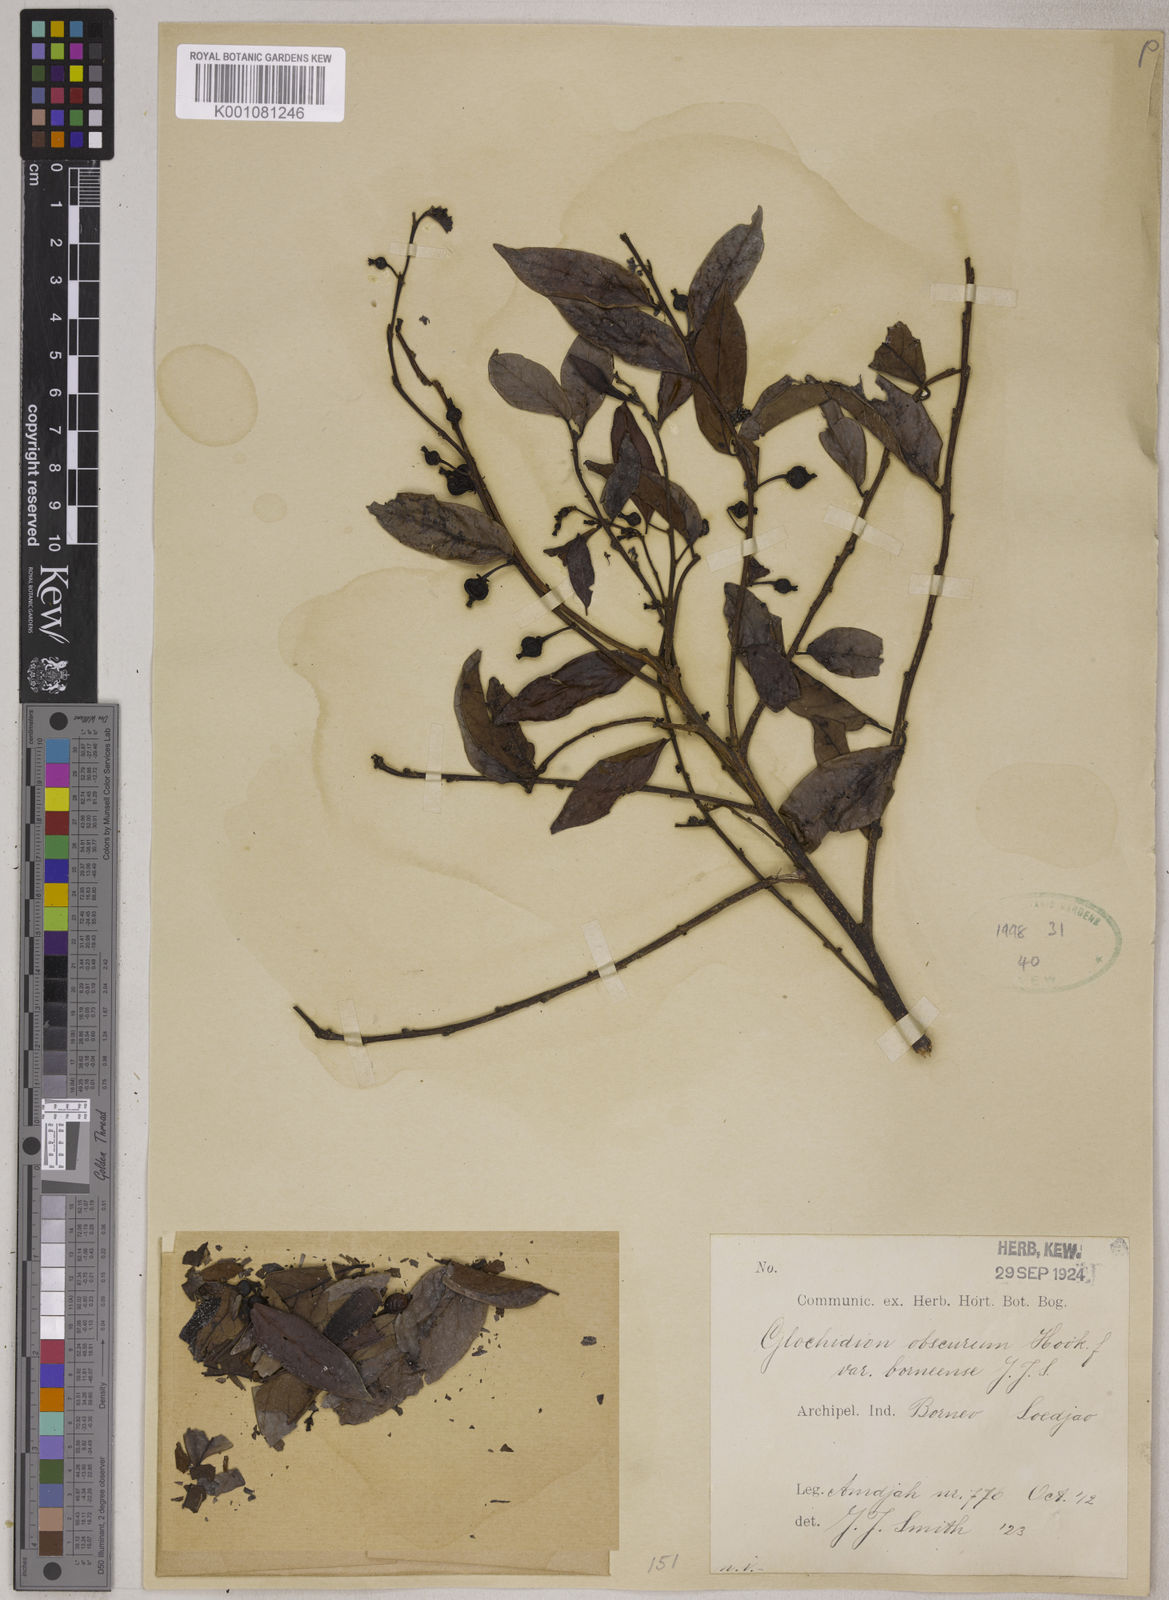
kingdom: Plantae
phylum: Tracheophyta
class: Magnoliopsida
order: Malpighiales
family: Phyllanthaceae
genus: Glochidion
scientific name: Glochidion obscurum
